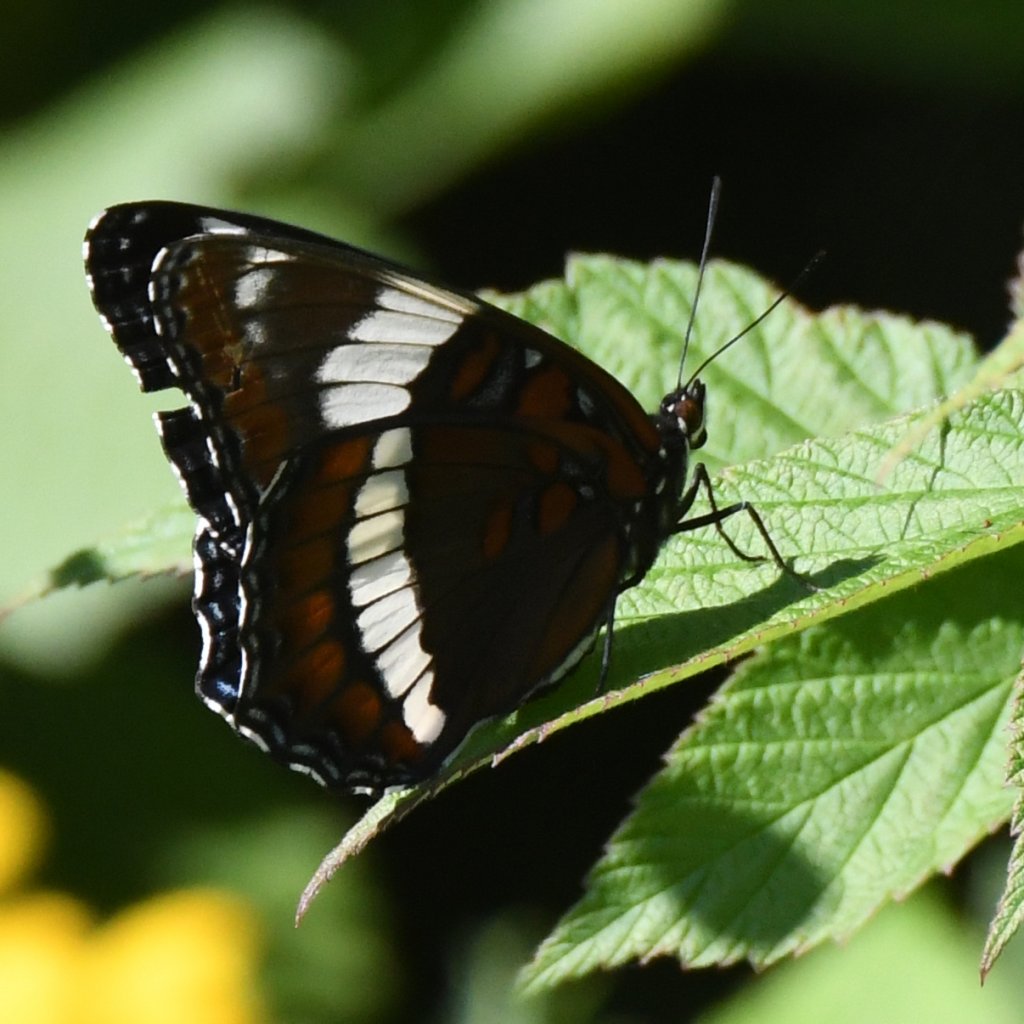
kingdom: Animalia
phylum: Arthropoda
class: Insecta
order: Lepidoptera
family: Nymphalidae
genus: Limenitis
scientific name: Limenitis arthemis
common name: Red-spotted Admiral
